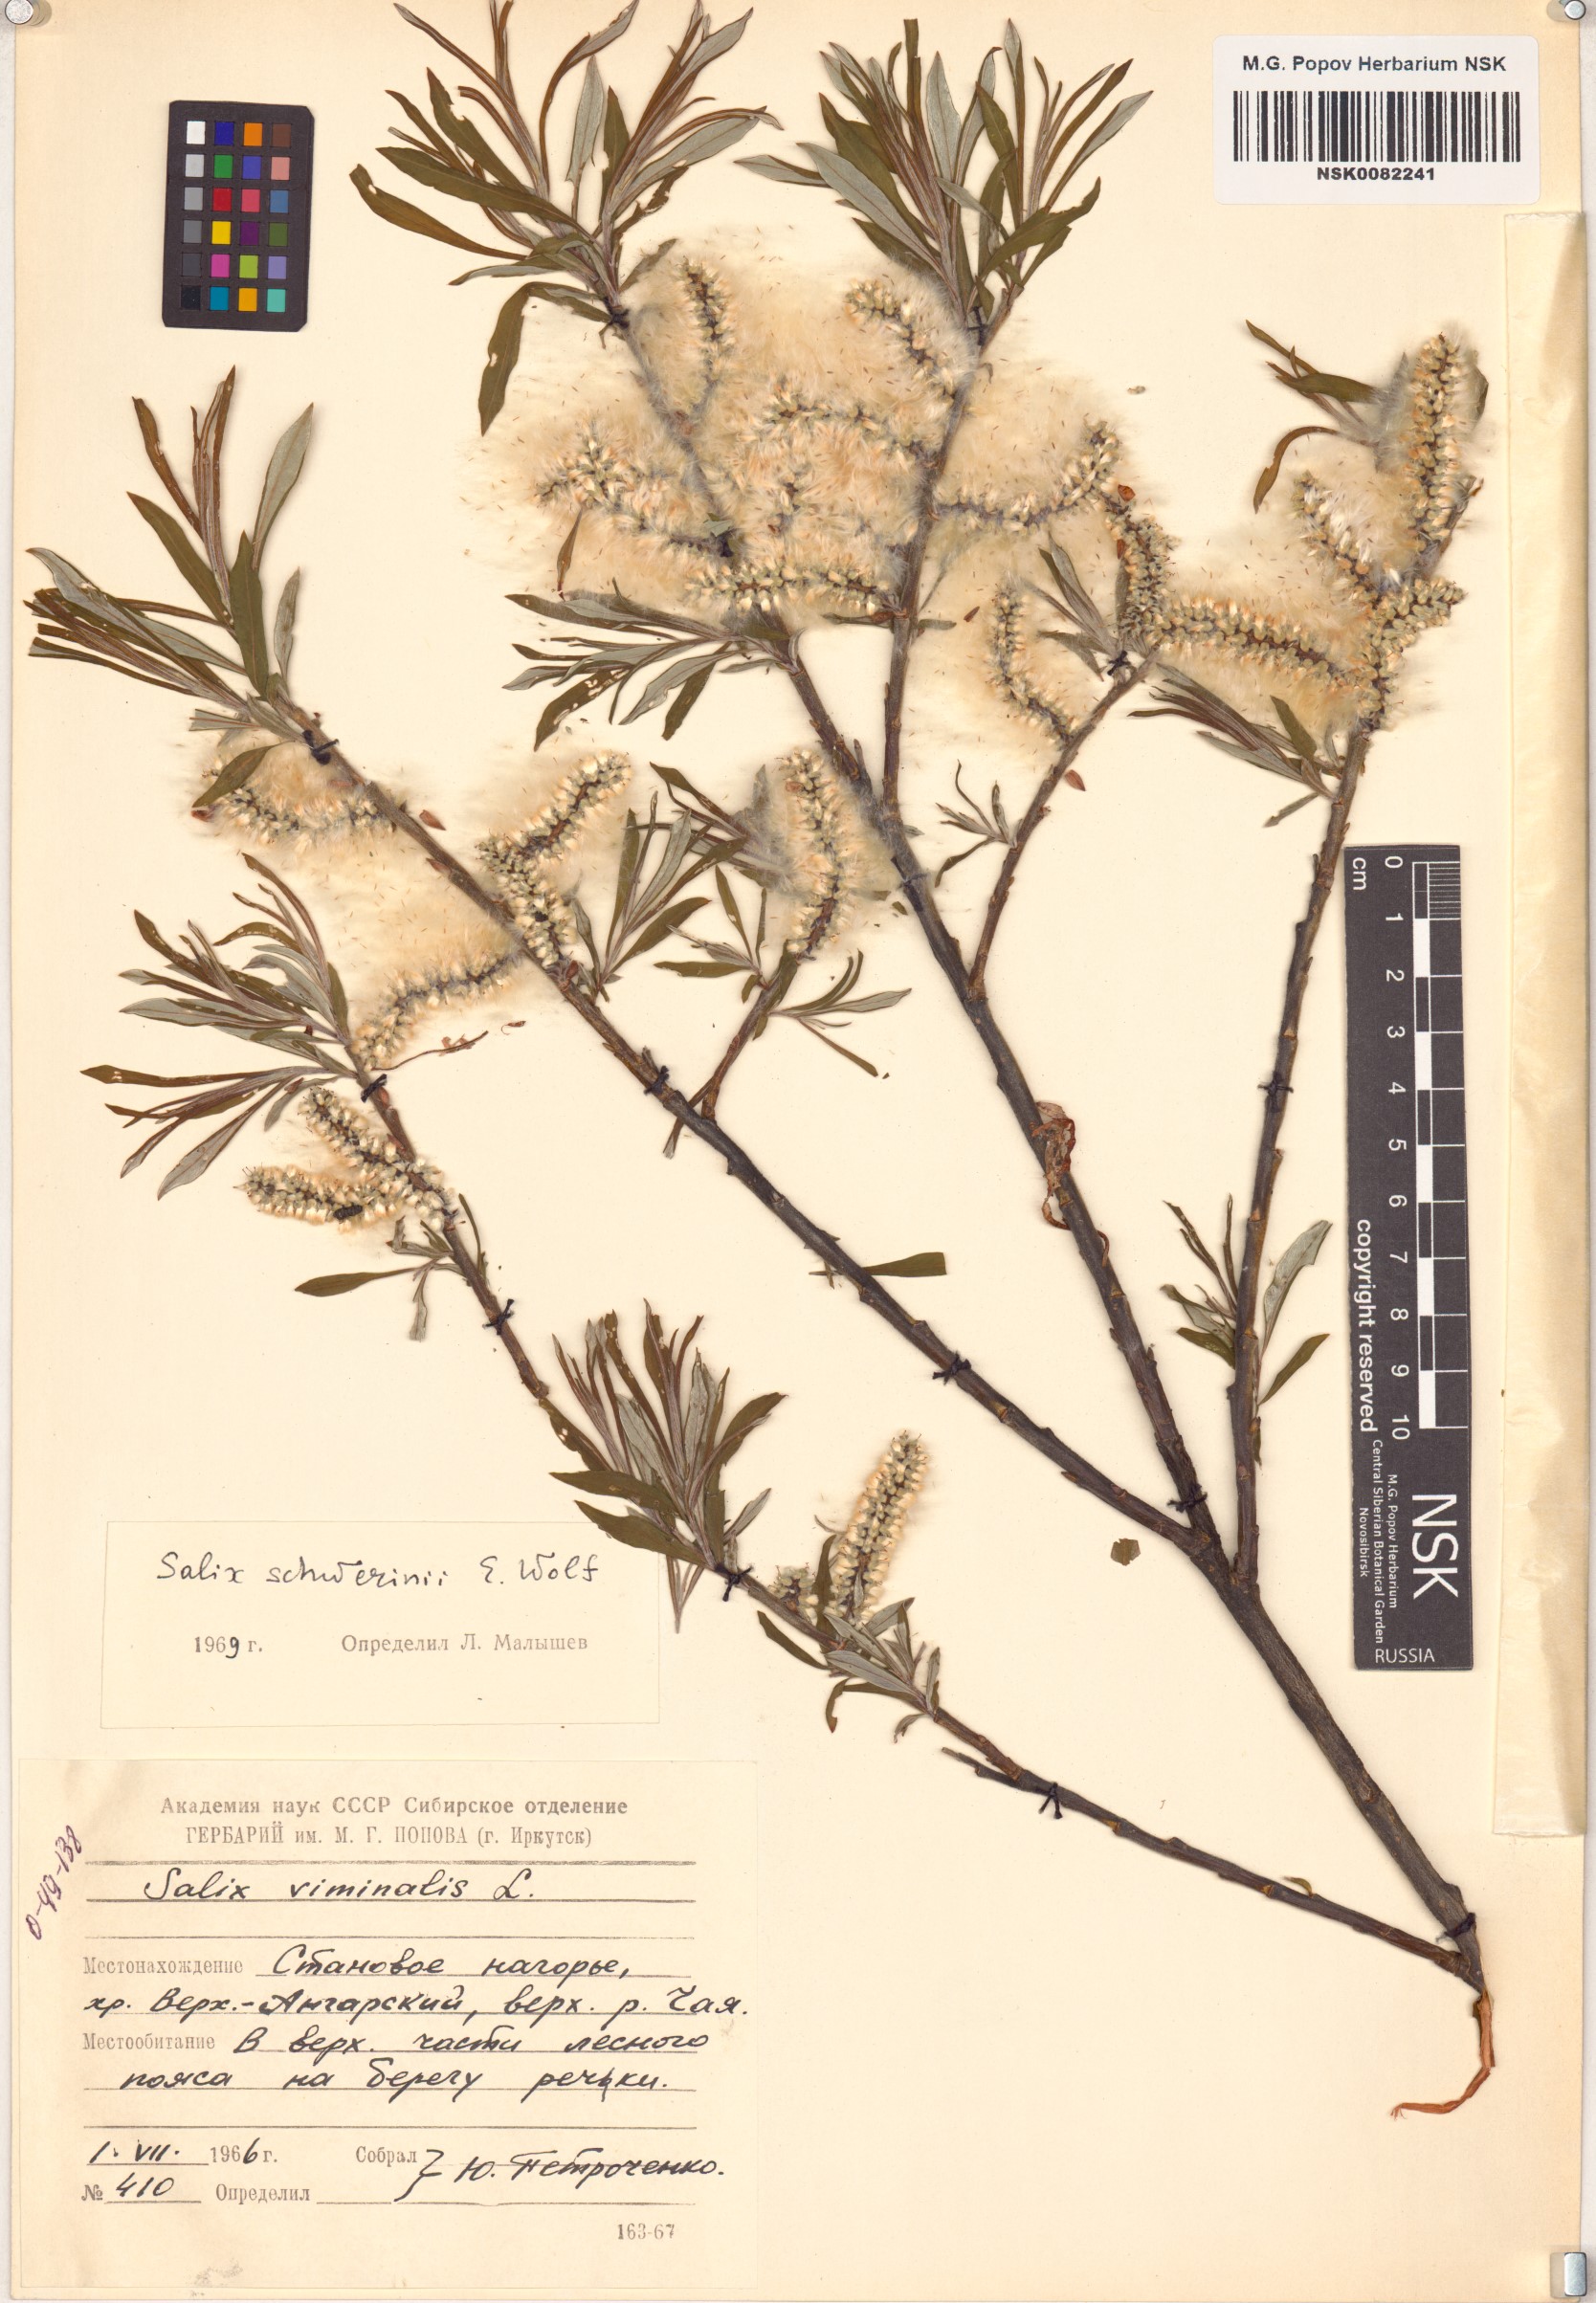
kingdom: Plantae
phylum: Tracheophyta
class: Magnoliopsida
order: Malpighiales
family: Salicaceae
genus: Salix
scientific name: Salix schwerinii
